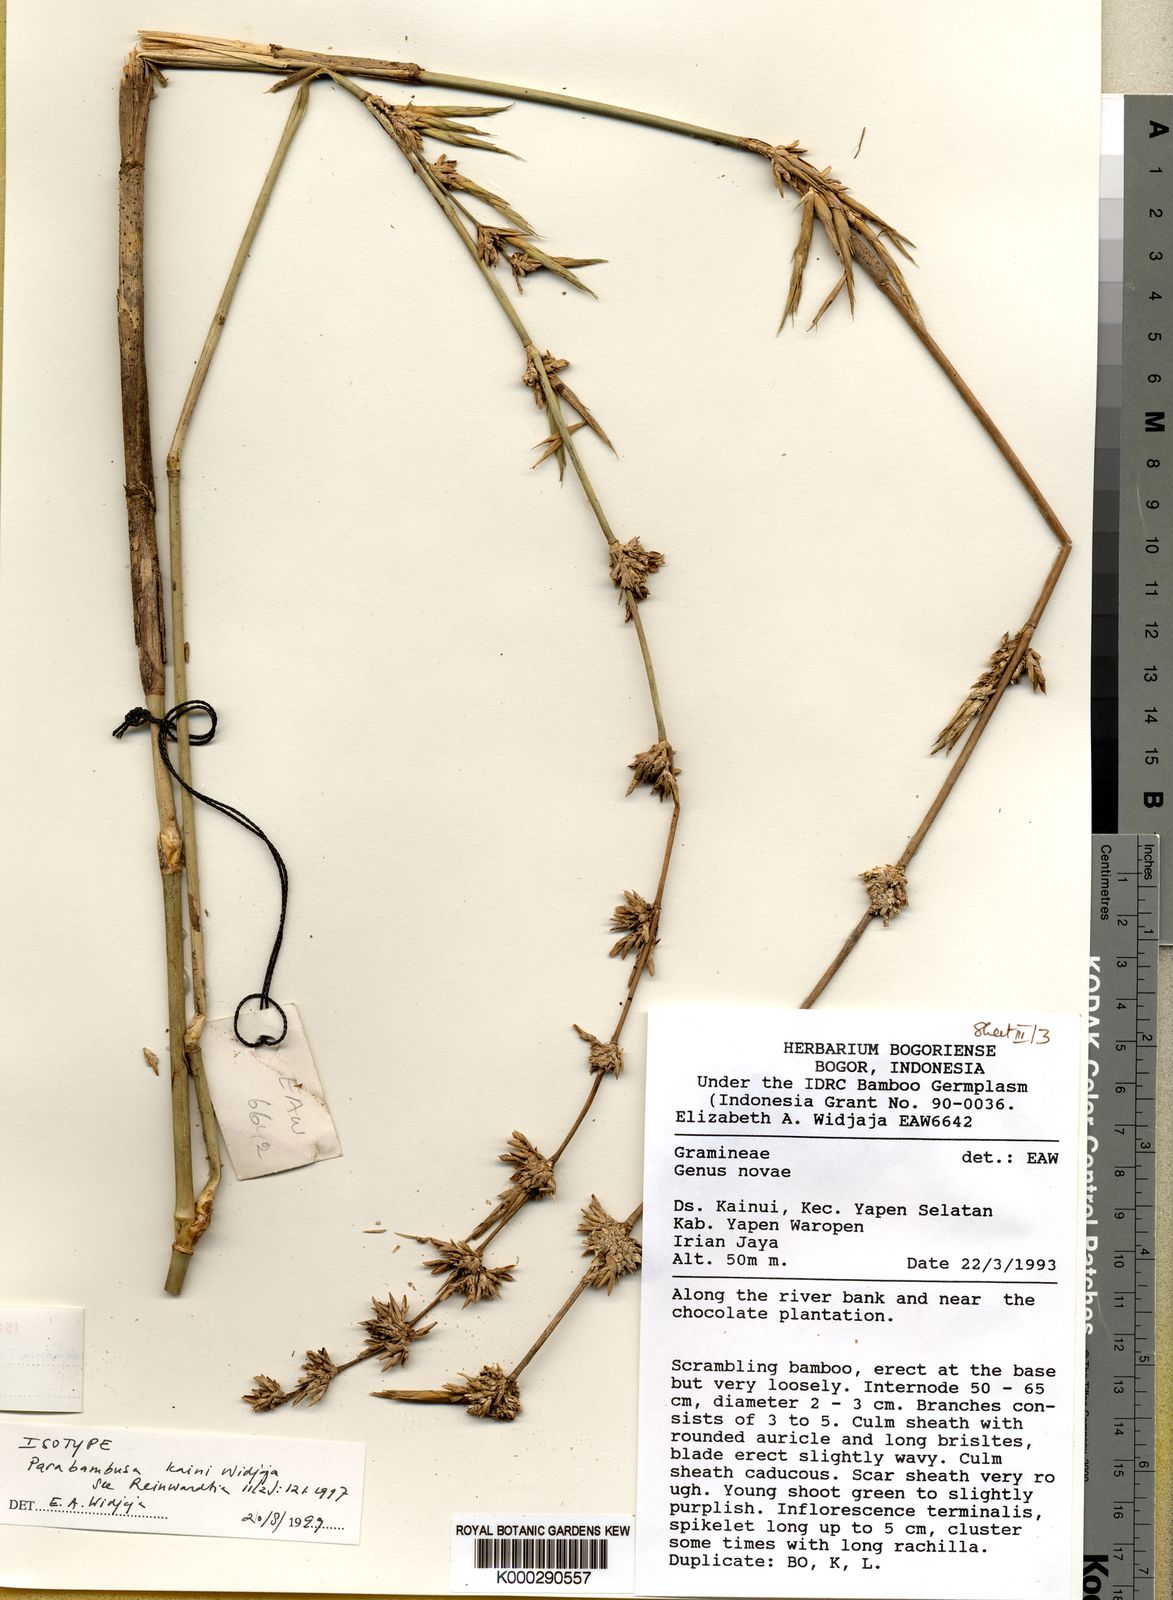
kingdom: Plantae
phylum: Tracheophyta
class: Liliopsida
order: Poales
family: Poaceae
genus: Parabambusa
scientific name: Parabambusa kaini
